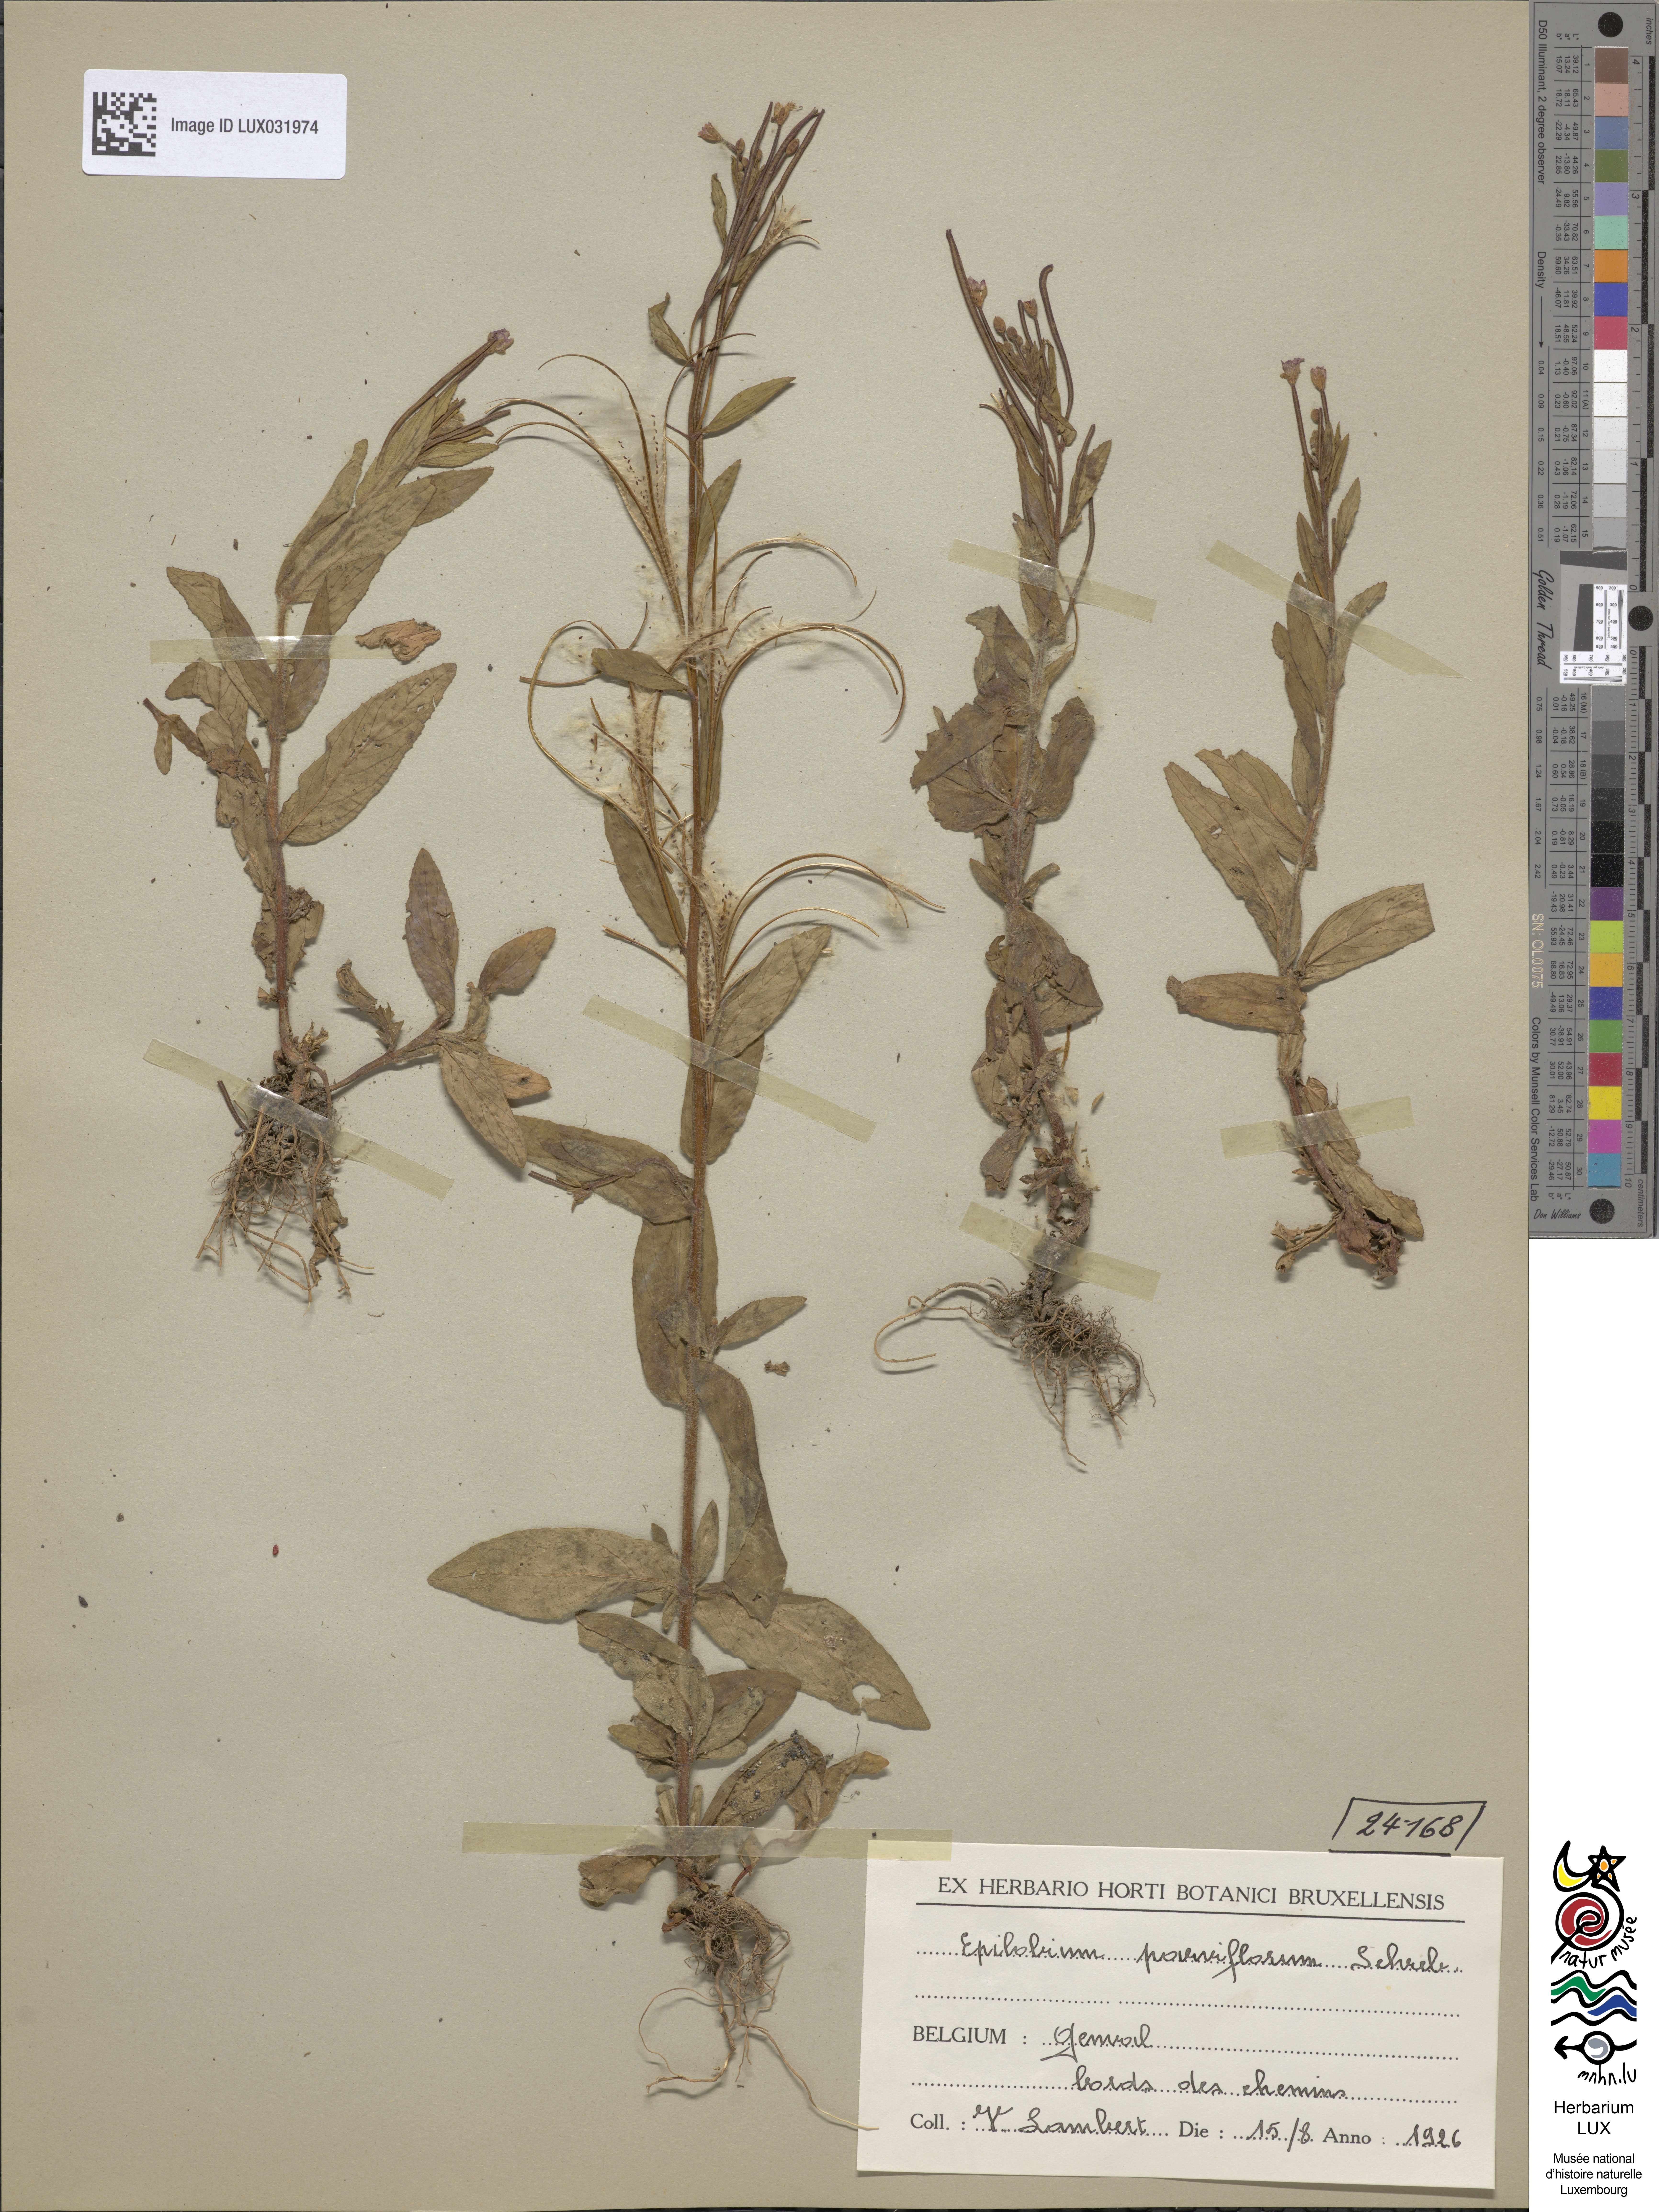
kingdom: Plantae
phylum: Tracheophyta
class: Magnoliopsida
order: Myrtales
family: Onagraceae
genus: Epilobium
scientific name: Epilobium parviflorum
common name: Hoary willowherb
